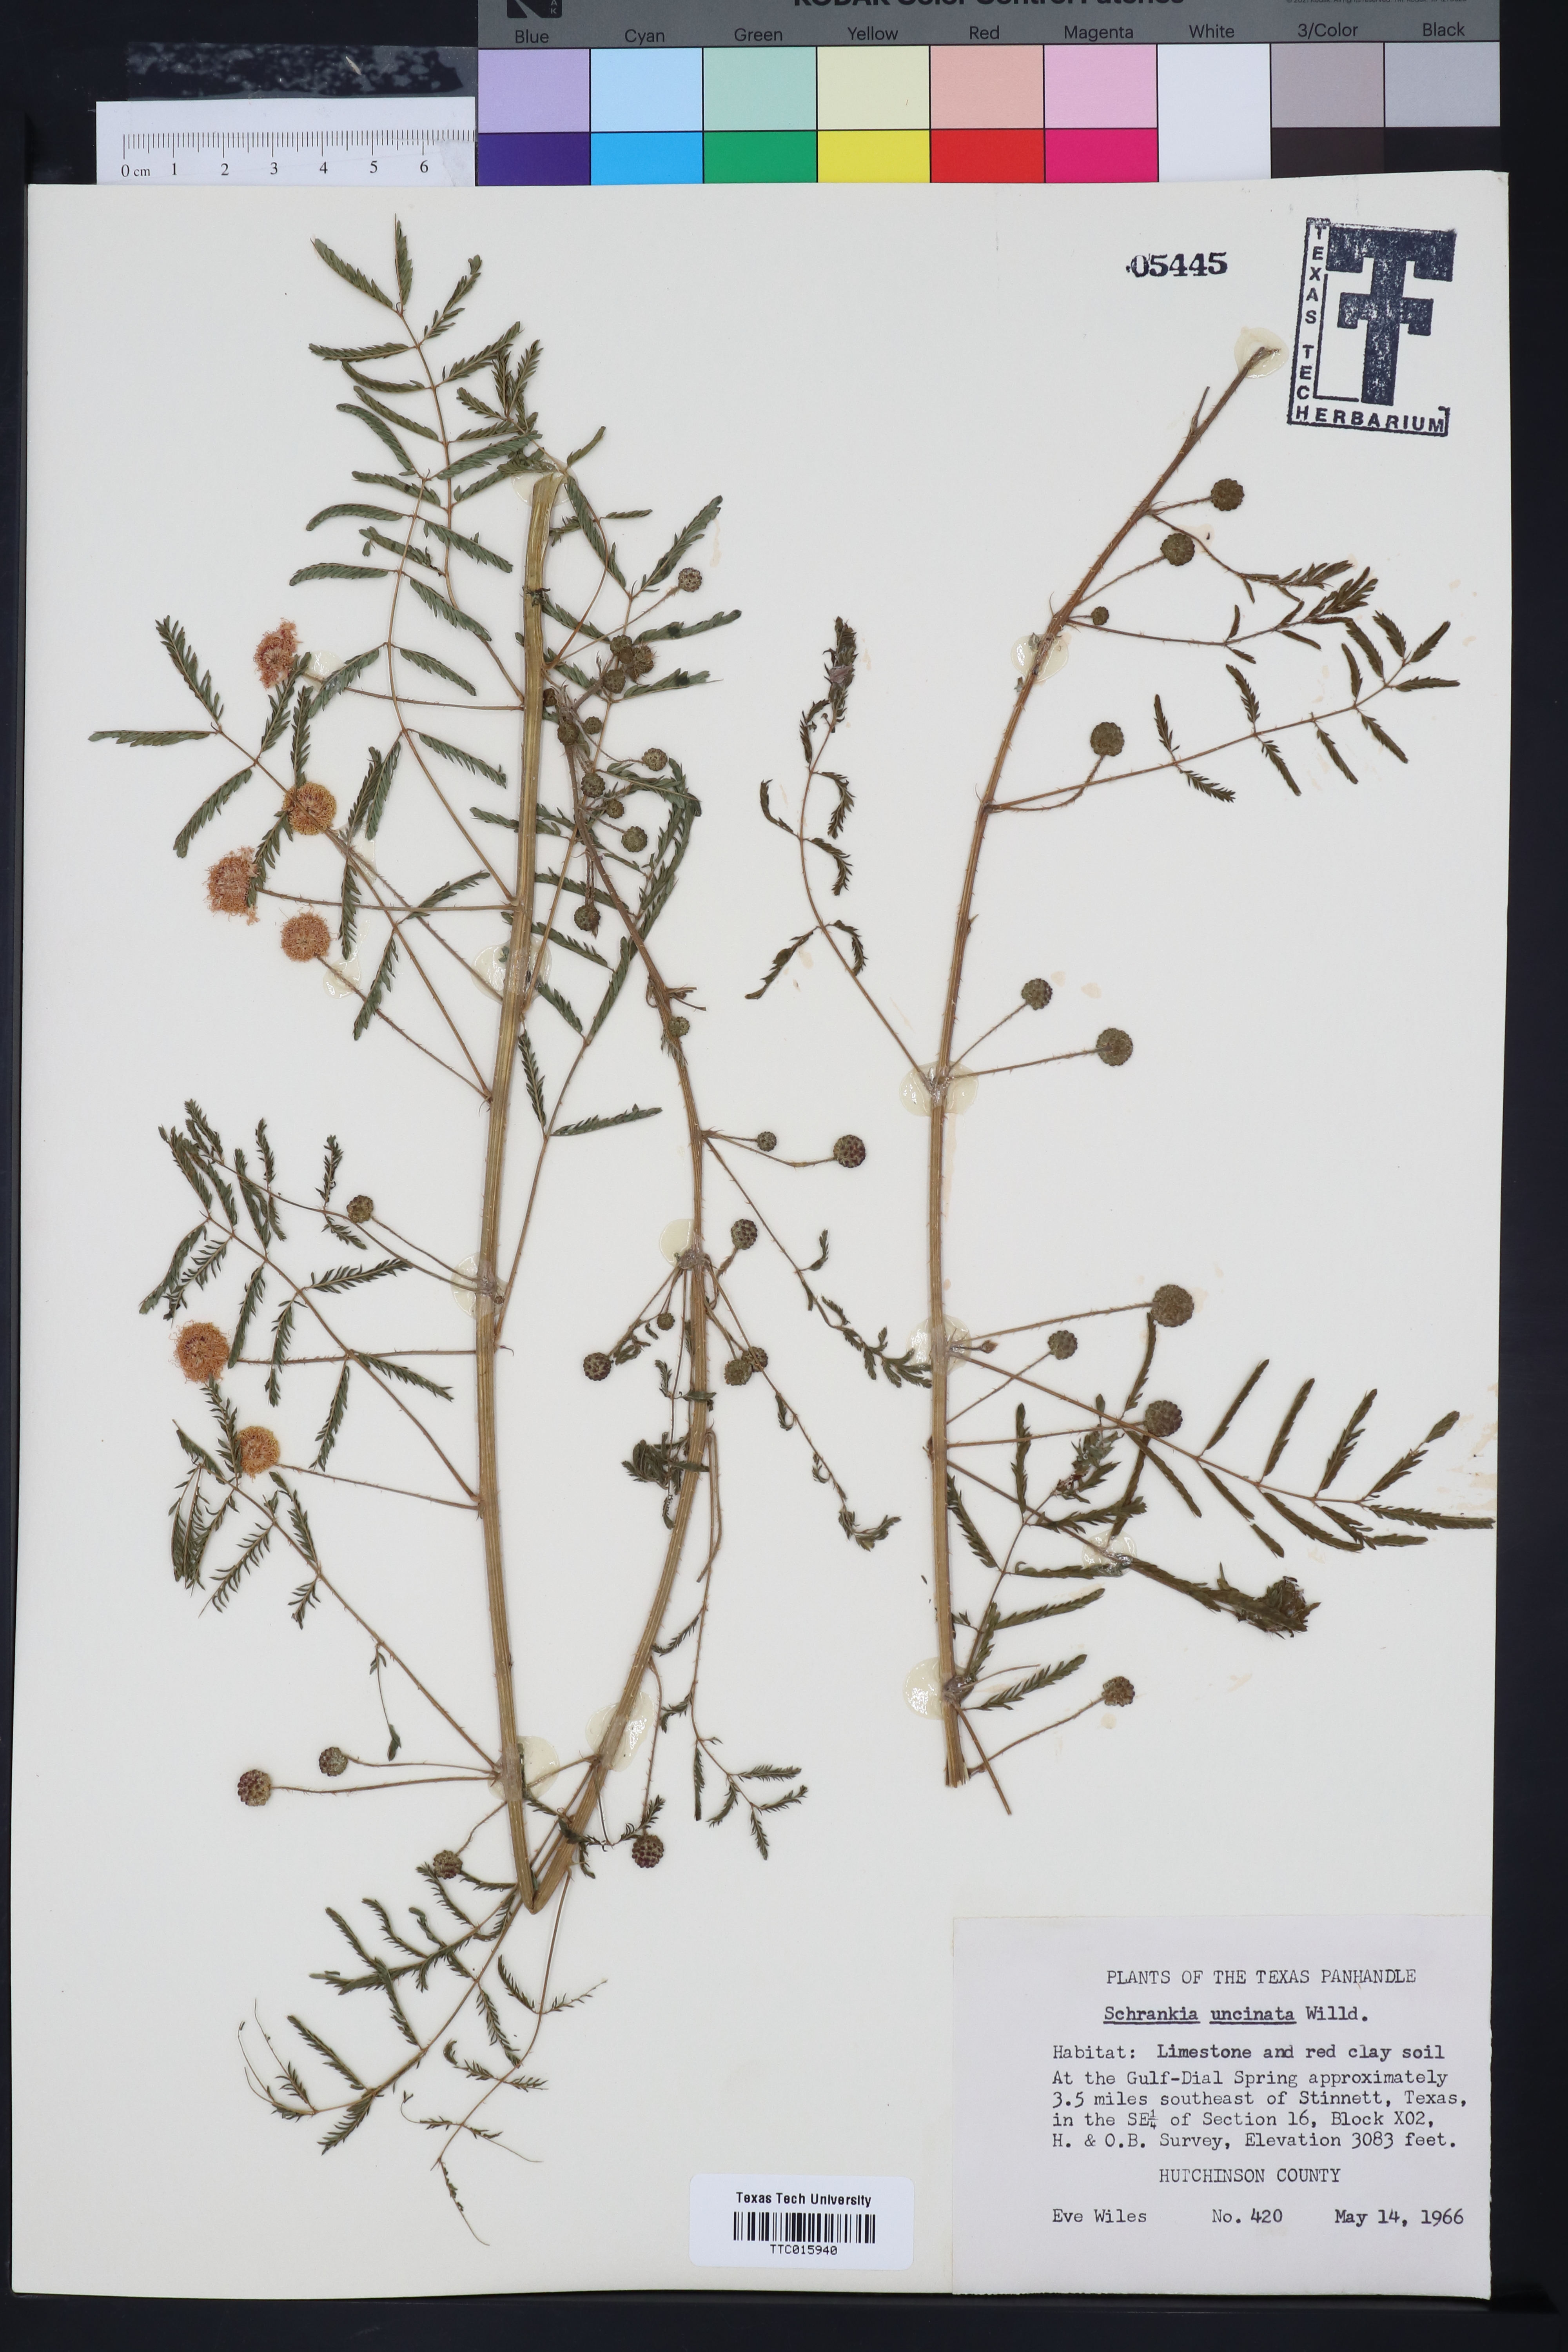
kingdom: Plantae
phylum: Tracheophyta
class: Magnoliopsida
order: Fabales
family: Fabaceae
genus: Mimosa
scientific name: Mimosa quadrivalvis
